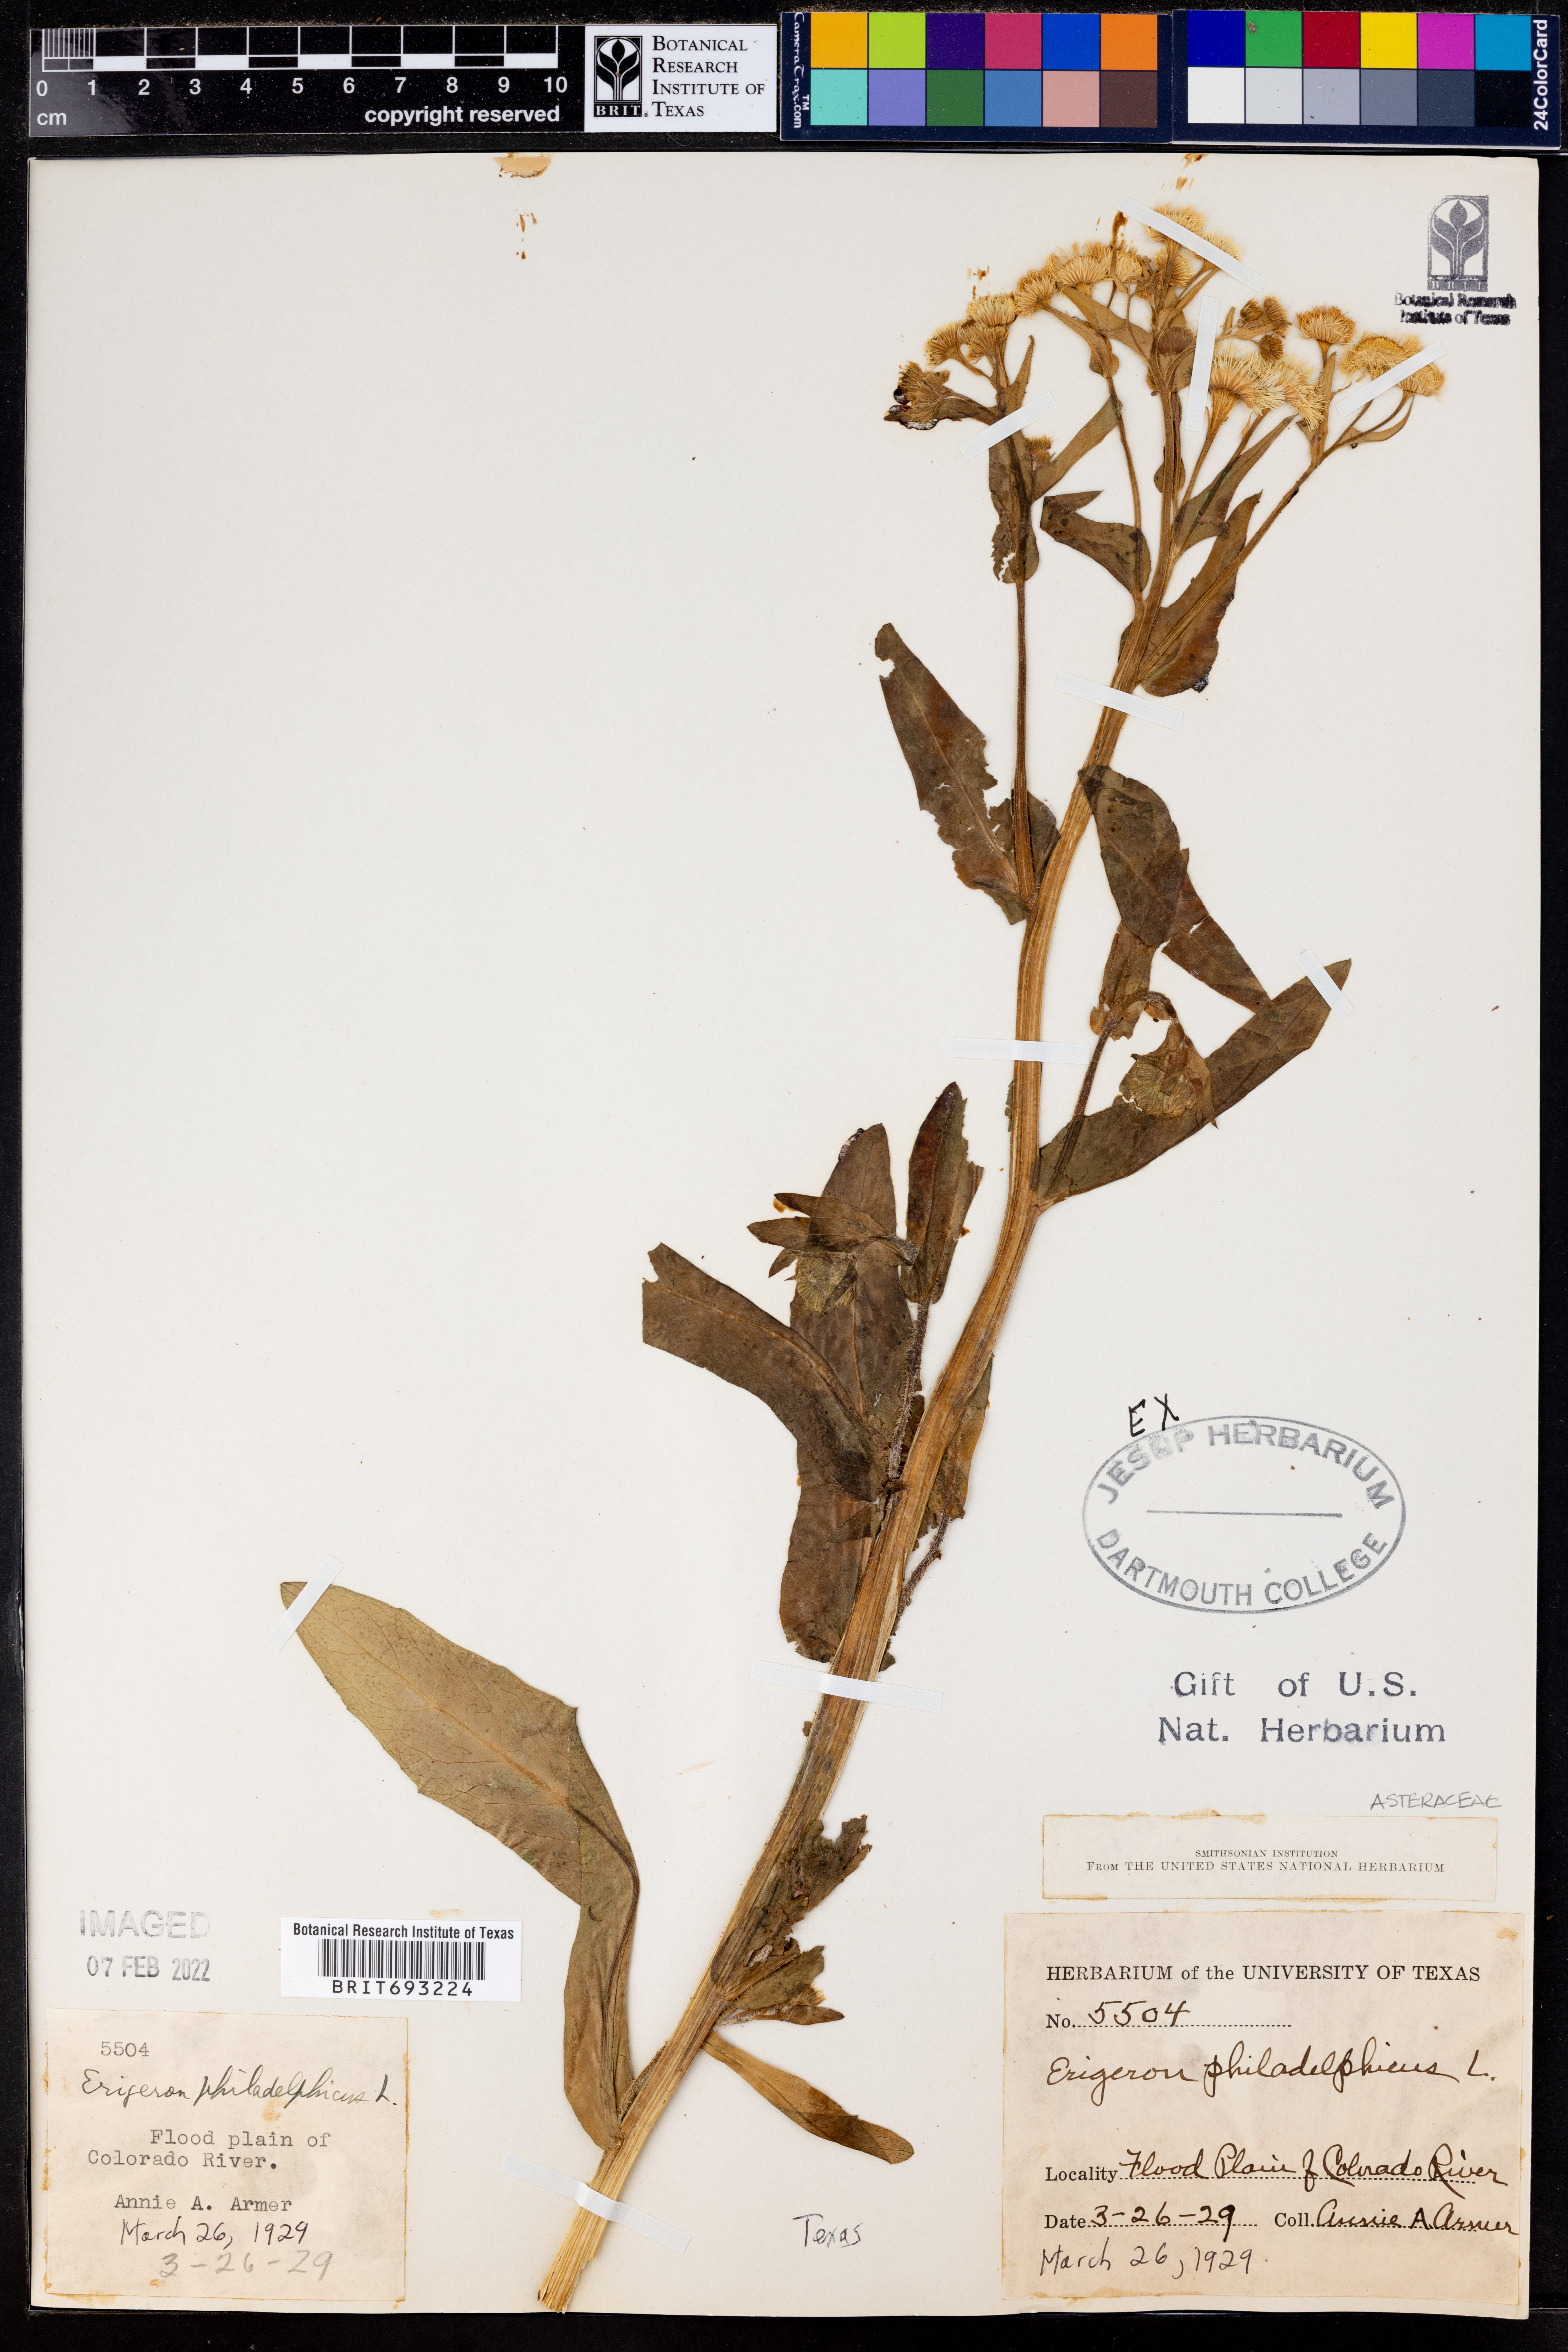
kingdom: Plantae
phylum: Tracheophyta
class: Magnoliopsida
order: Asterales
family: Asteraceae
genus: Erigeron
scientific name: Erigeron philadelphicus
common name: Robin's-plantain
